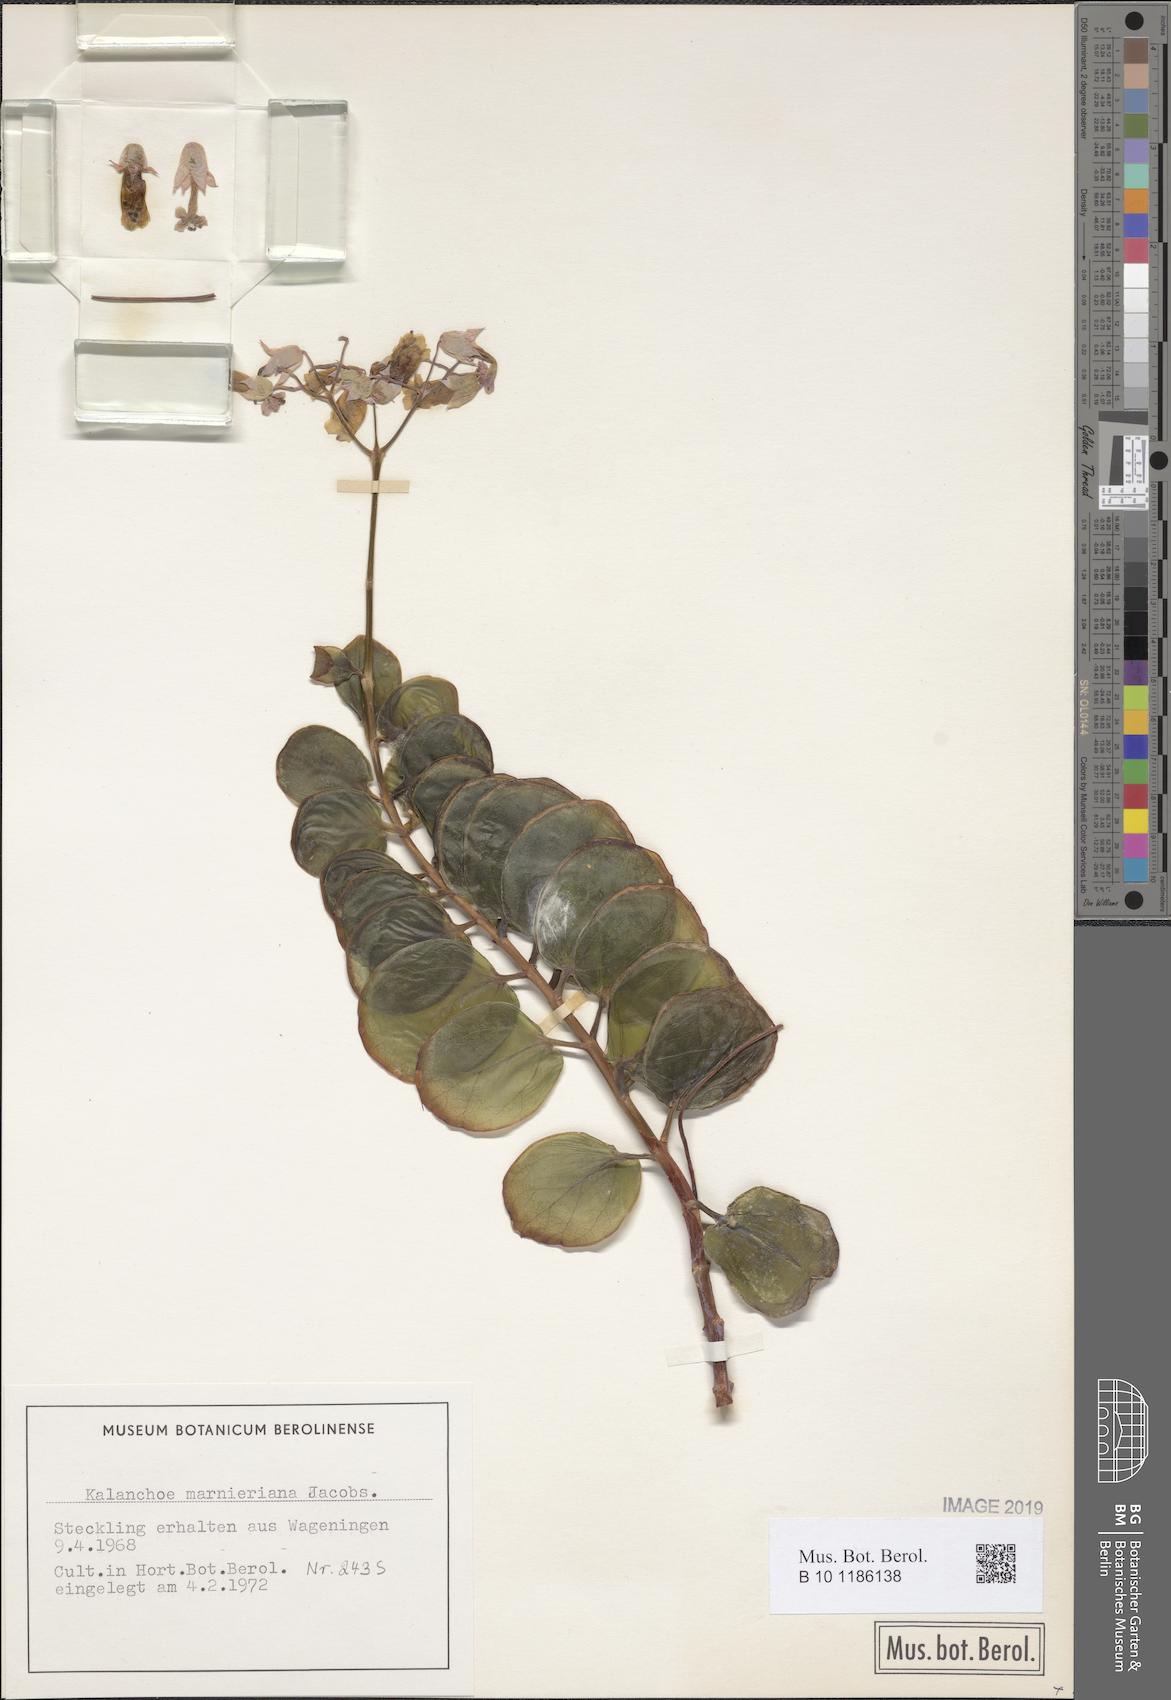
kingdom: Plantae
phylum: Tracheophyta
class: Magnoliopsida
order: Saxifragales
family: Crassulaceae
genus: Kalanchoe
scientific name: Kalanchoe marnieriana
